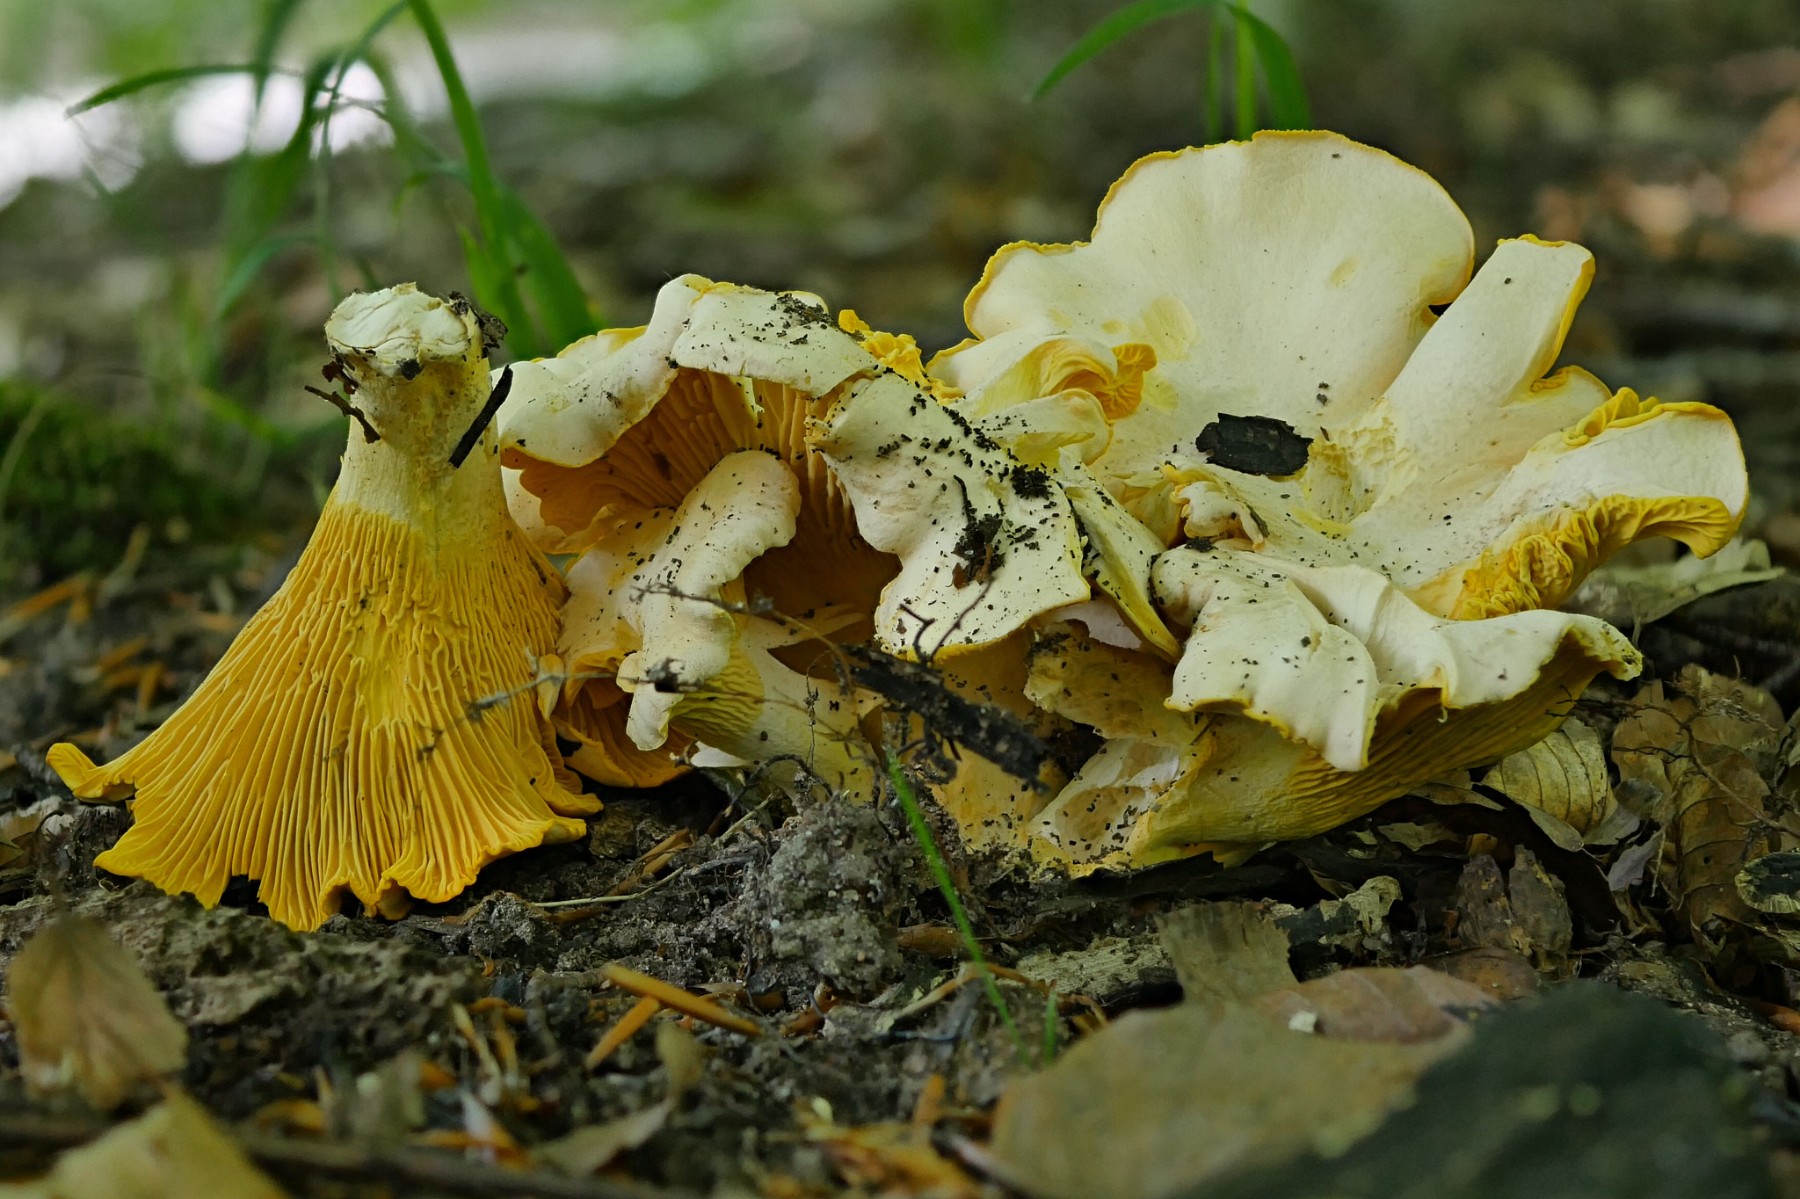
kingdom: Fungi
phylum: Basidiomycota
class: Agaricomycetes
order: Cantharellales
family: Hydnaceae
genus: Cantharellus
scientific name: Cantharellus pallens
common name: bleg kantarel
